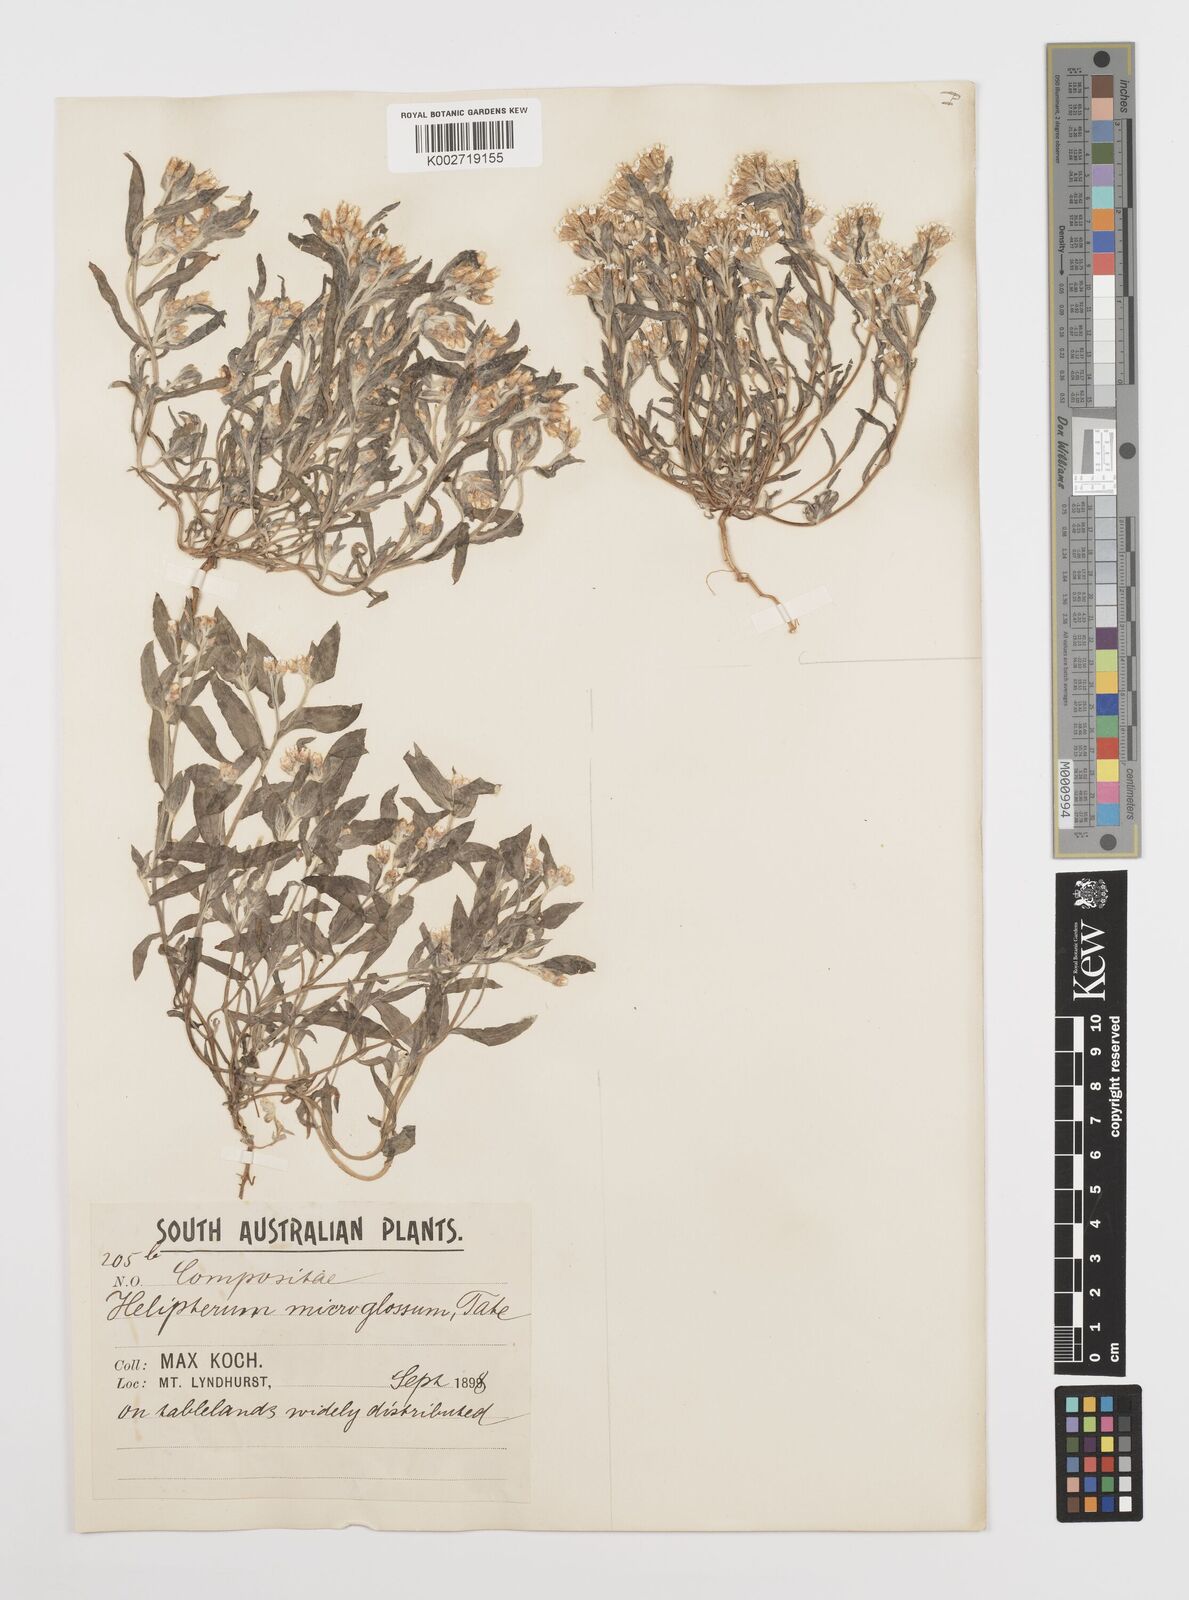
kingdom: Plantae
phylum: Tracheophyta
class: Magnoliopsida
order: Asterales
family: Asteraceae
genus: Rhodanthe
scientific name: Rhodanthe microglossa
